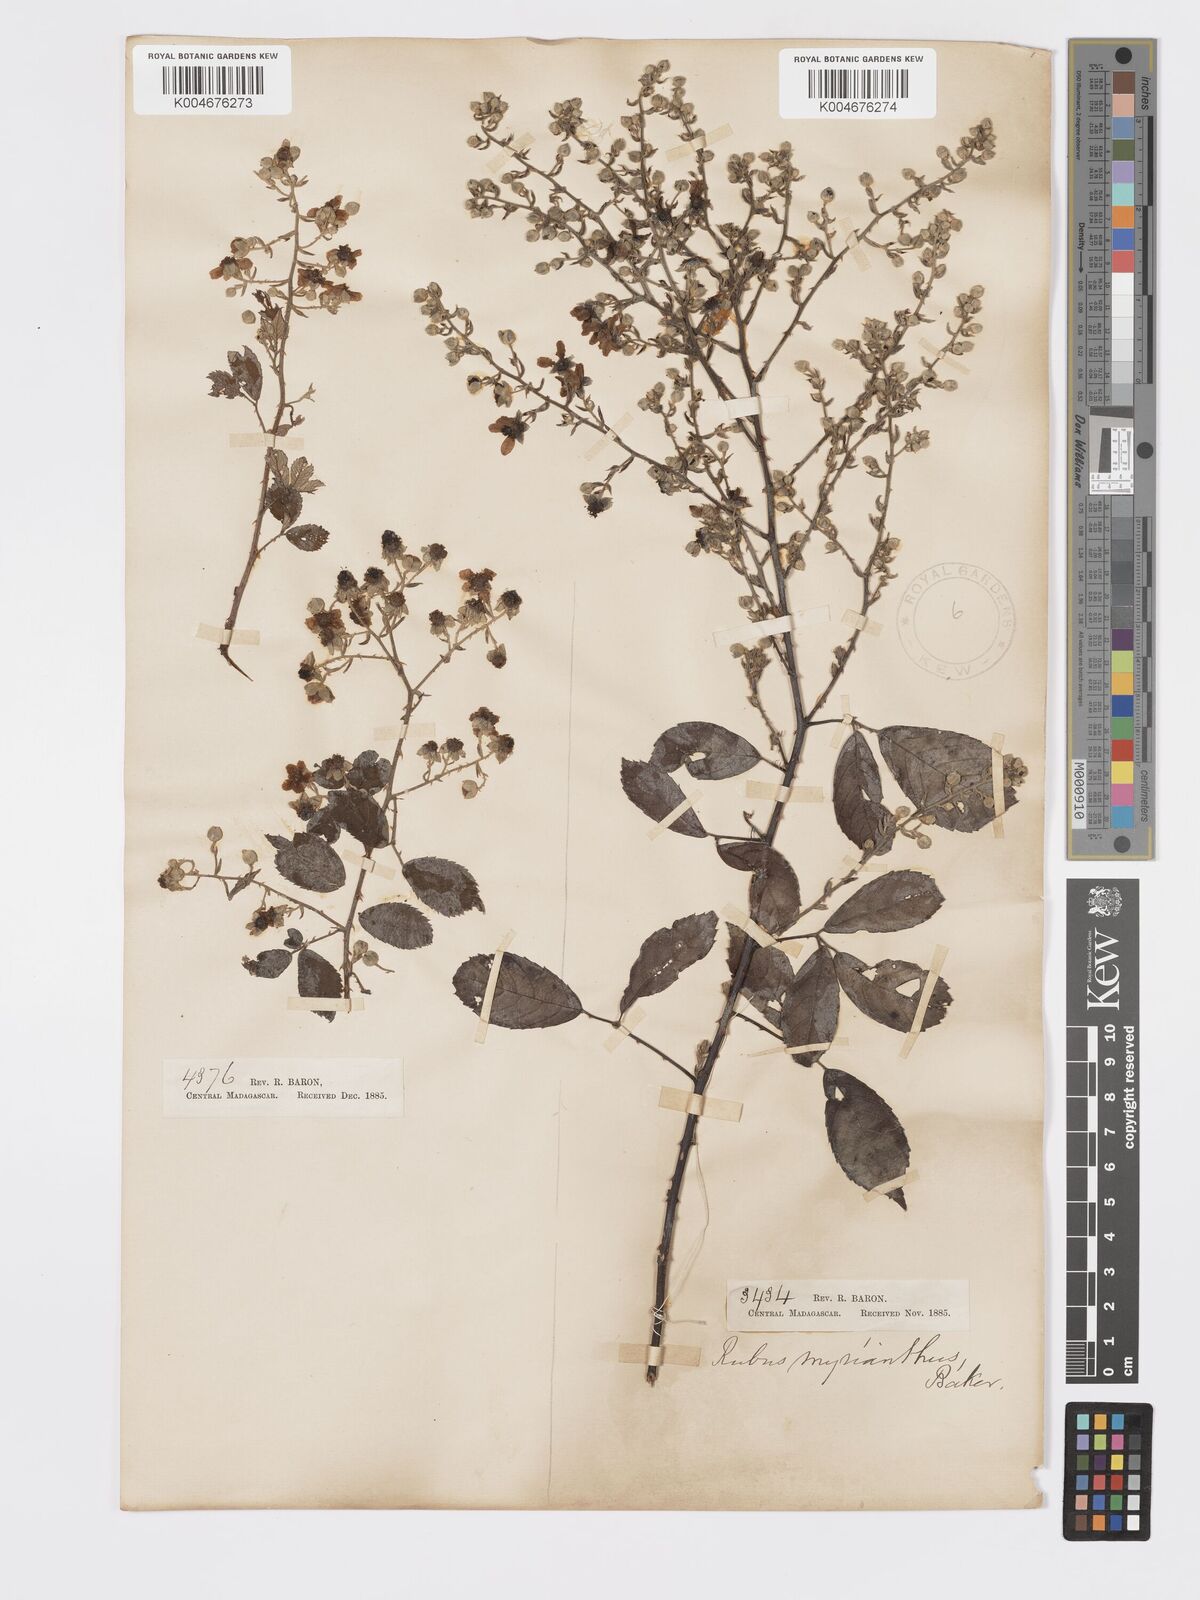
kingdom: Plantae
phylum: Tracheophyta
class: Magnoliopsida
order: Rosales
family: Rosaceae
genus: Rubus
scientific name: Rubus
